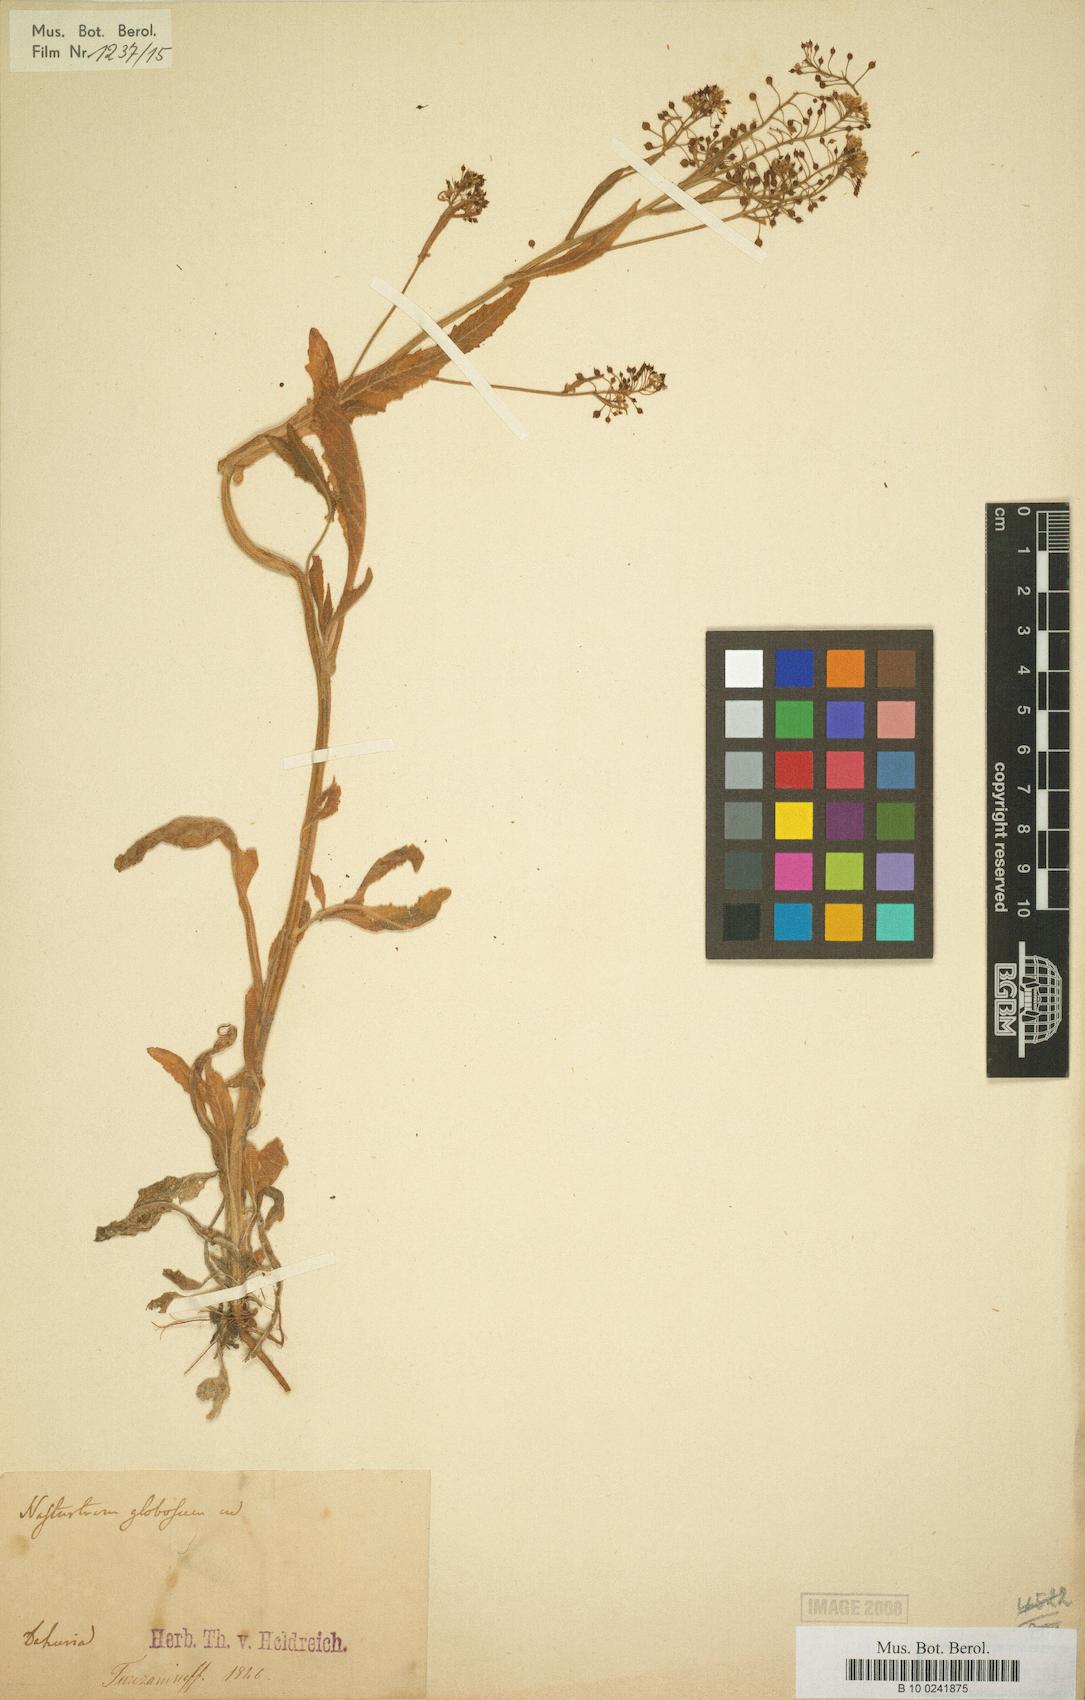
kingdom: Plantae
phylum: Tracheophyta
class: Magnoliopsida
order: Brassicales
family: Brassicaceae
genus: Rorippa
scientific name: Rorippa globosa
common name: Globe yellowcress
